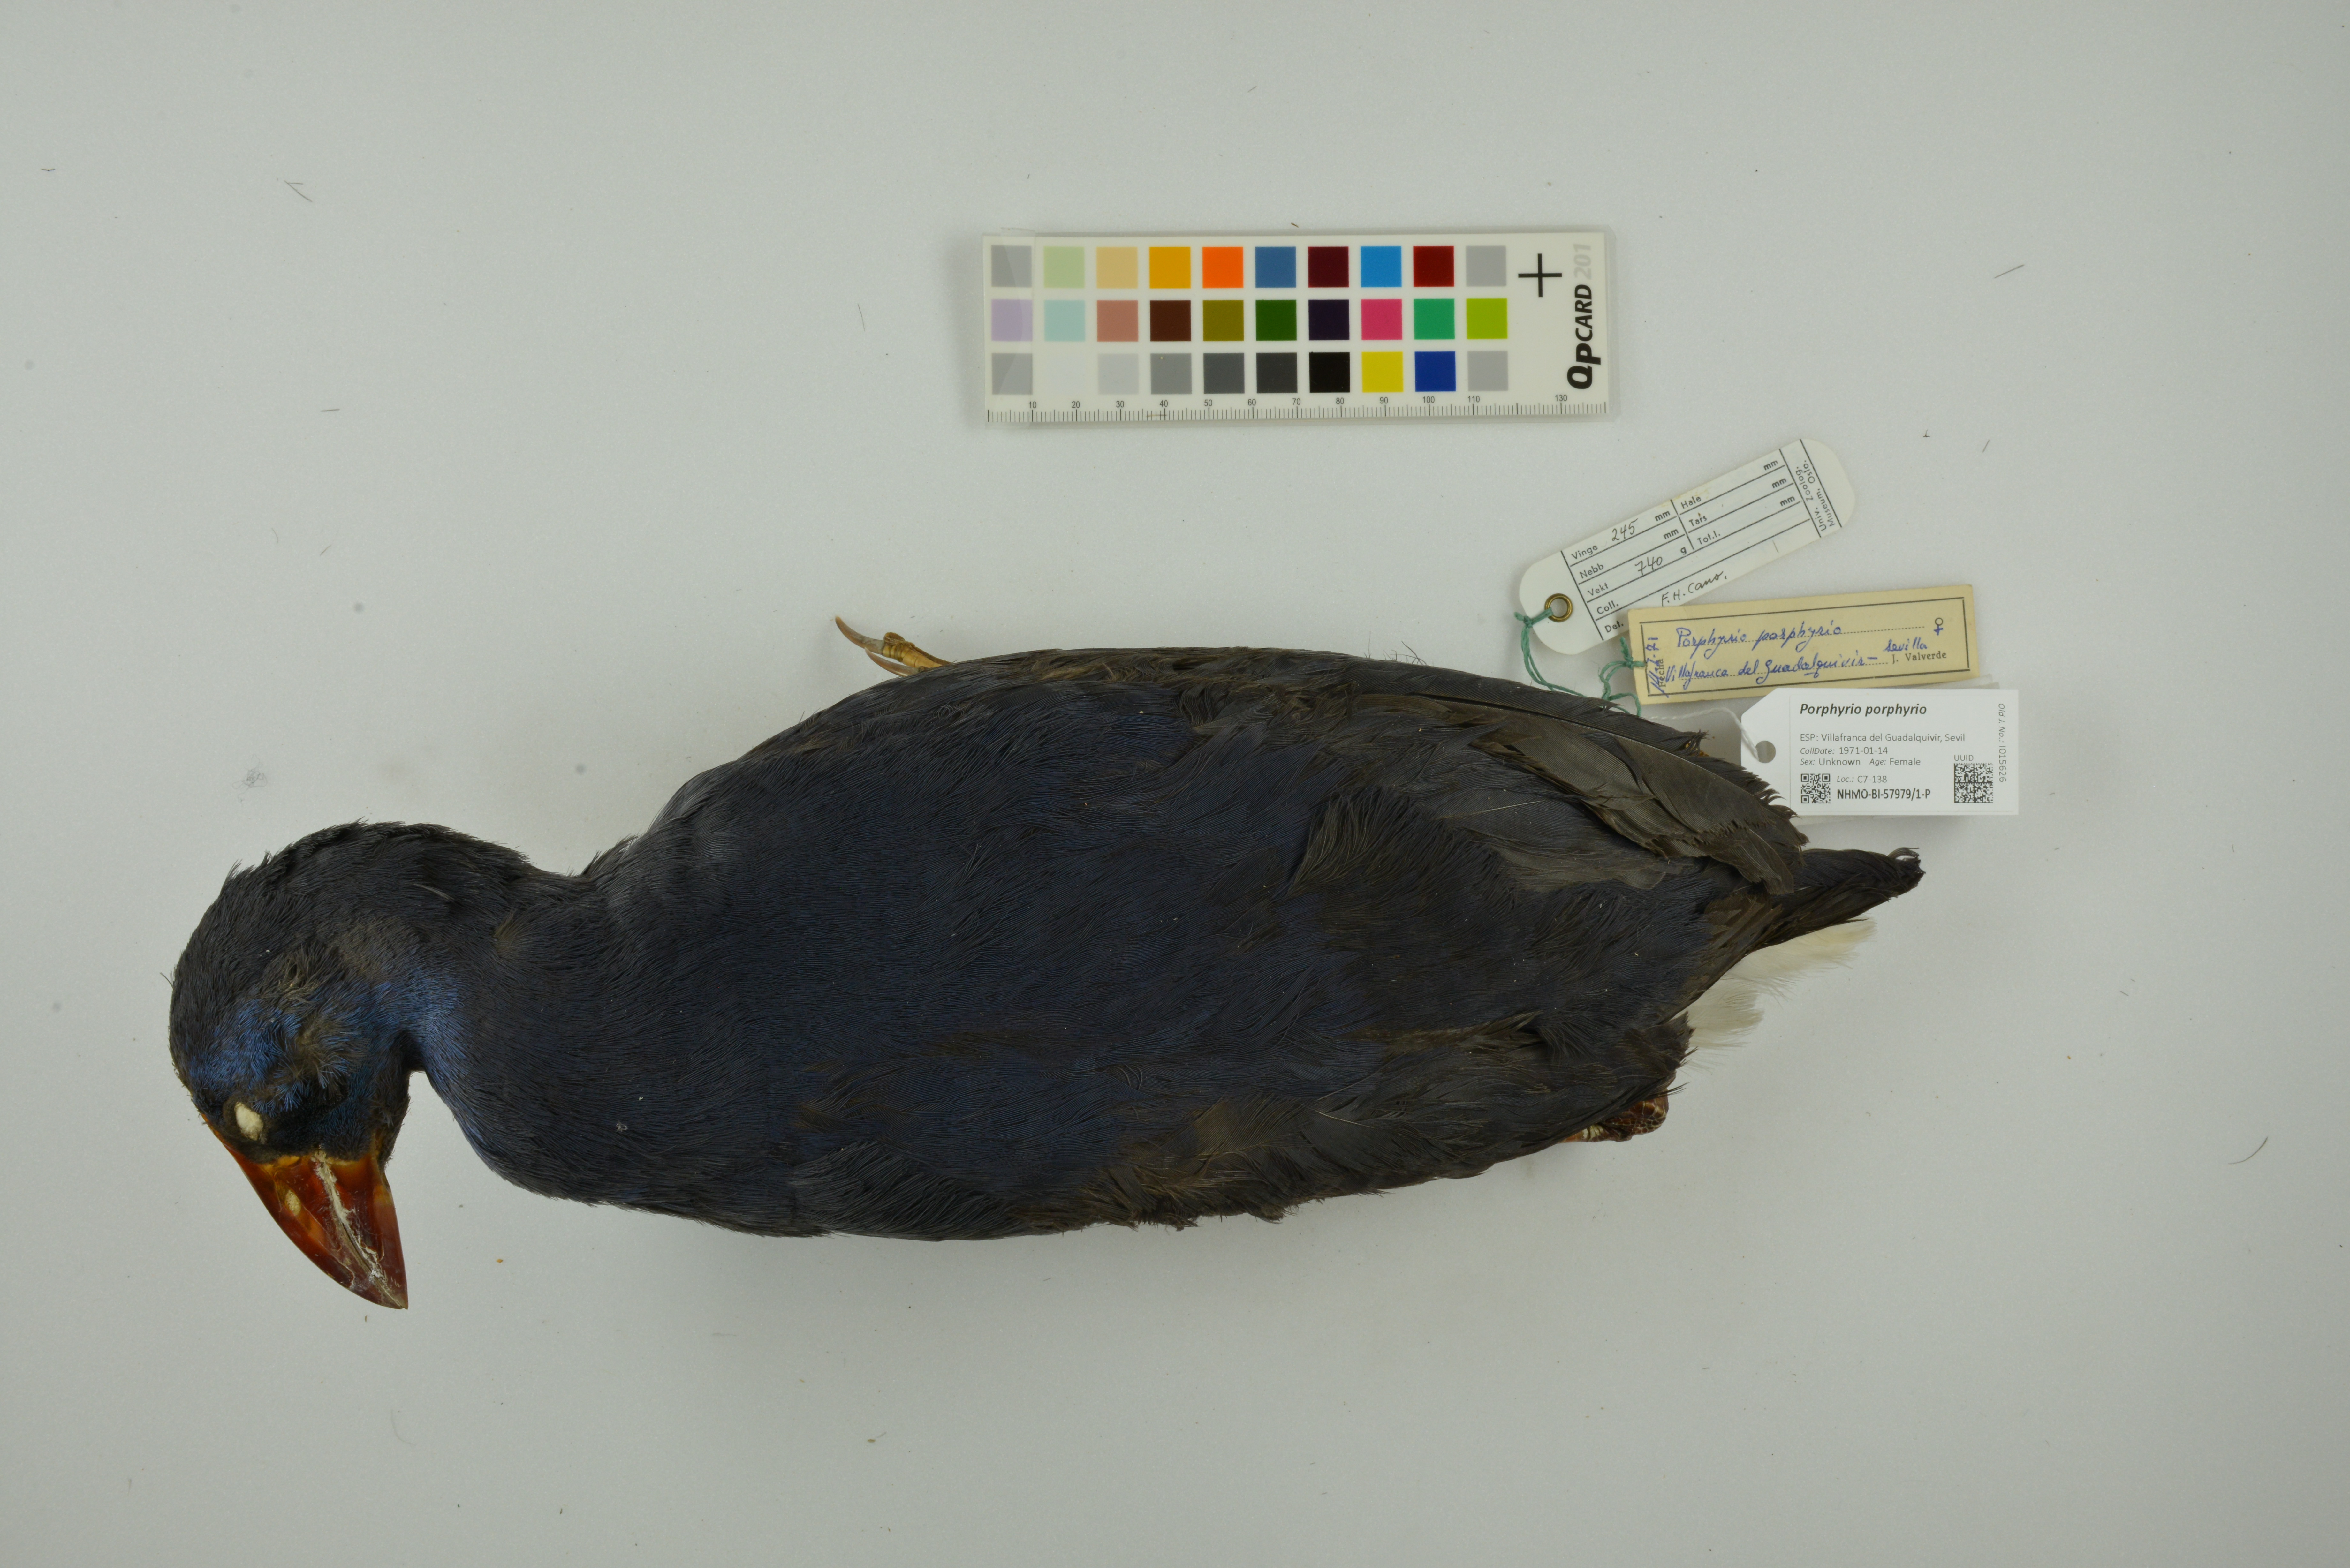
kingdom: Animalia
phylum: Chordata
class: Aves
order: Gruiformes
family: Rallidae
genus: Porphyrio
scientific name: Porphyrio porphyrio
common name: Purple swamphen
